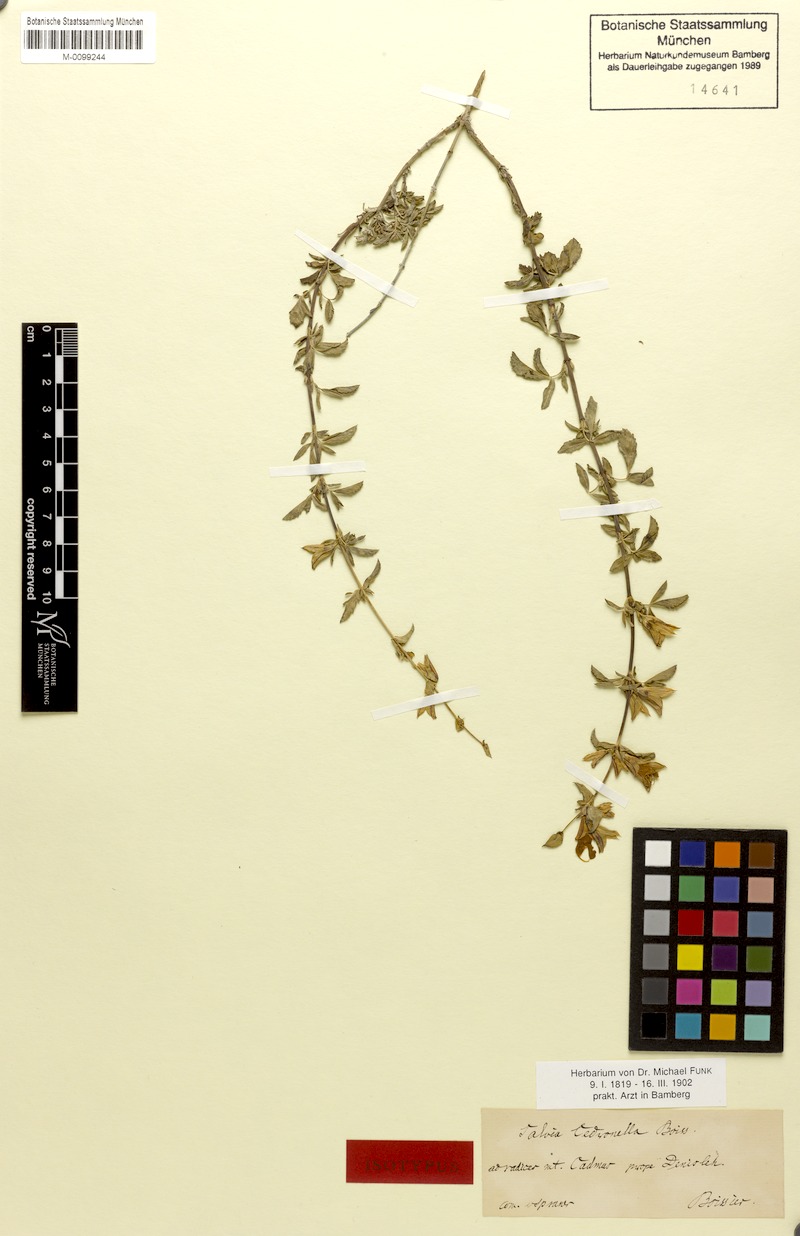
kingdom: Plantae
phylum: Tracheophyta
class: Magnoliopsida
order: Lamiales
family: Lamiaceae
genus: Salvia
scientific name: Salvia cedronella
